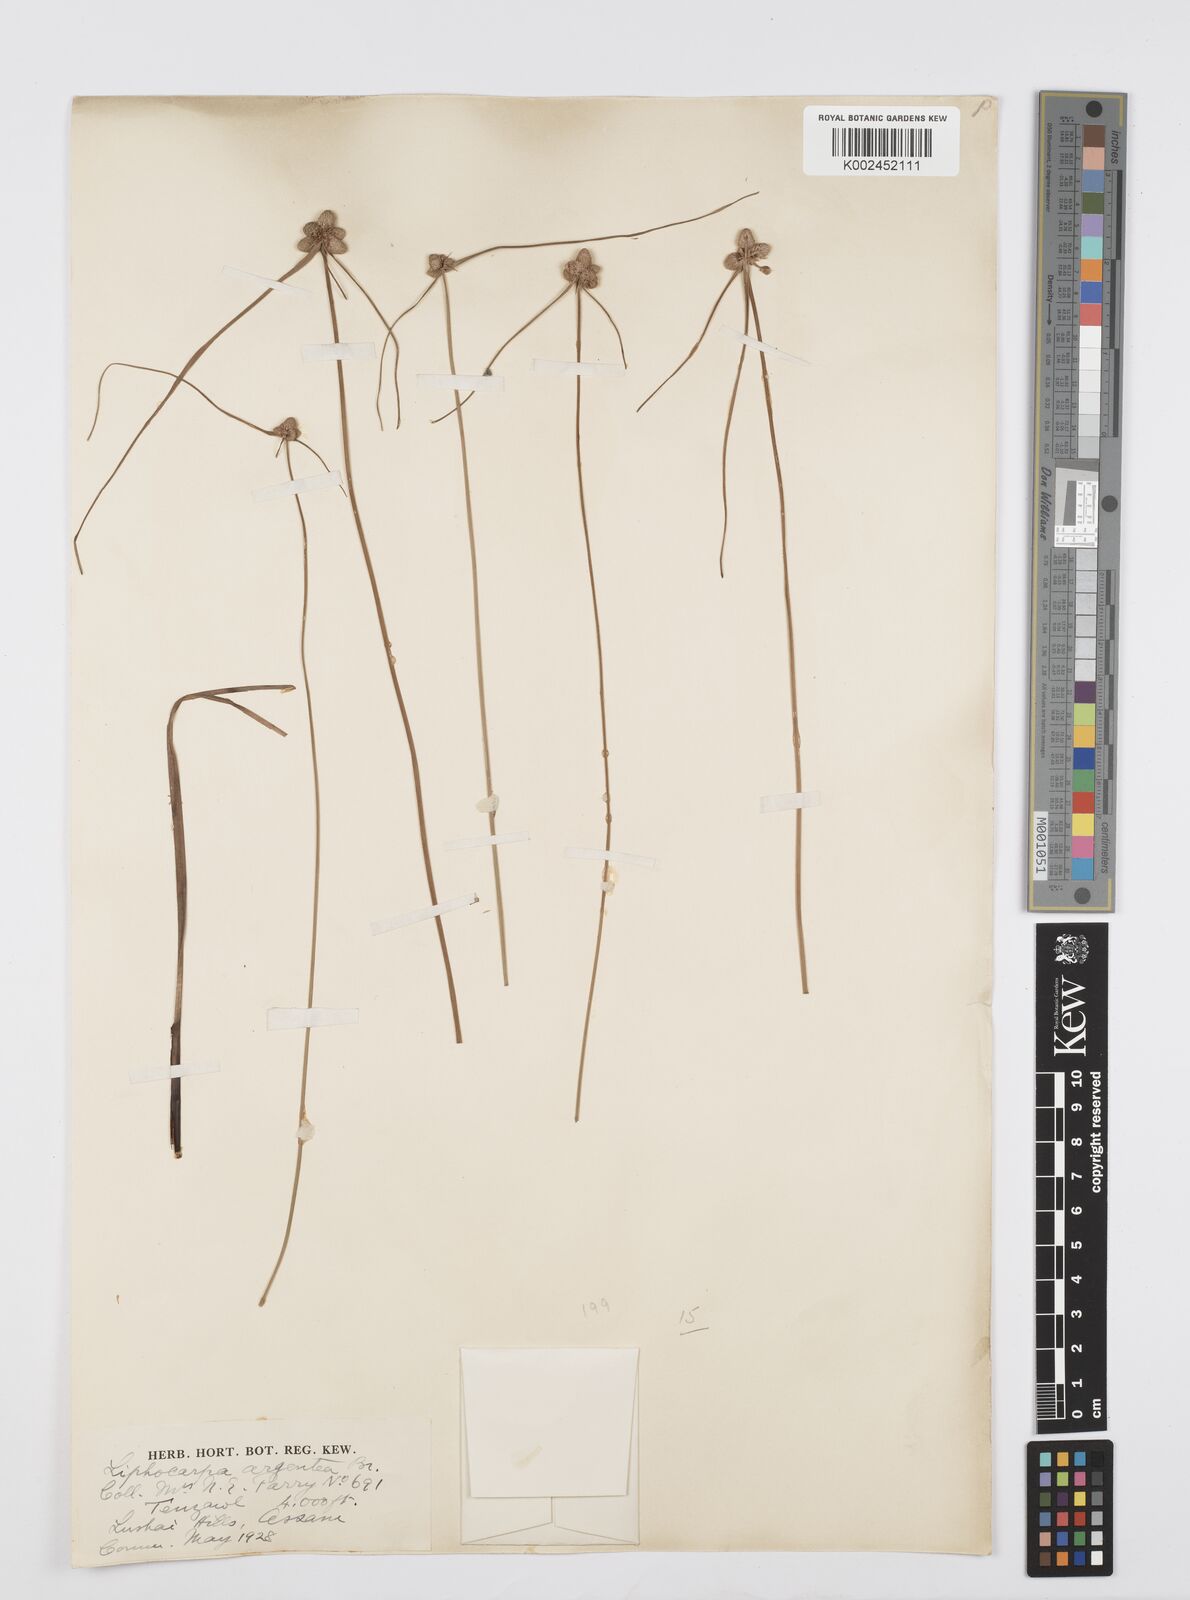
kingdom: Plantae
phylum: Tracheophyta
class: Liliopsida
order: Poales
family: Cyperaceae
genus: Cyperus
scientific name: Cyperus
